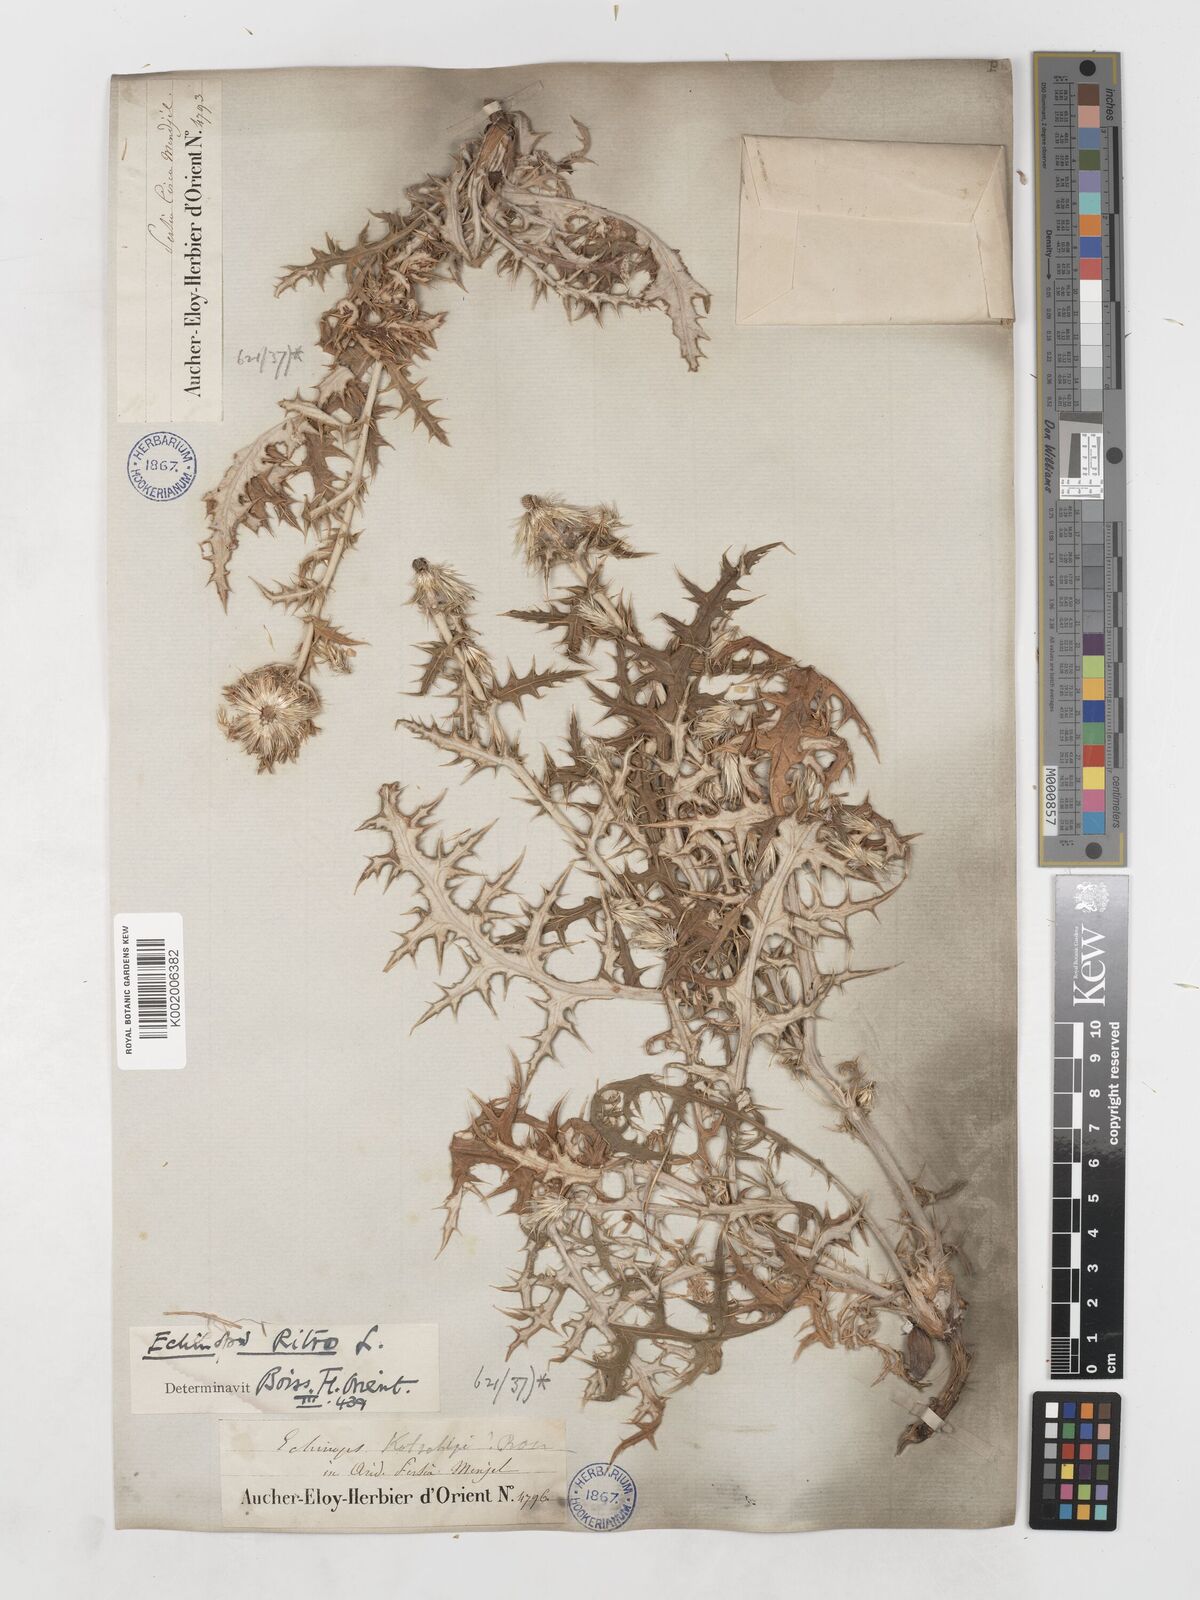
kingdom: Plantae
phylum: Tracheophyta
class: Magnoliopsida
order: Asterales
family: Asteraceae
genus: Echinops
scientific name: Echinops ritro
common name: Globe thistle
